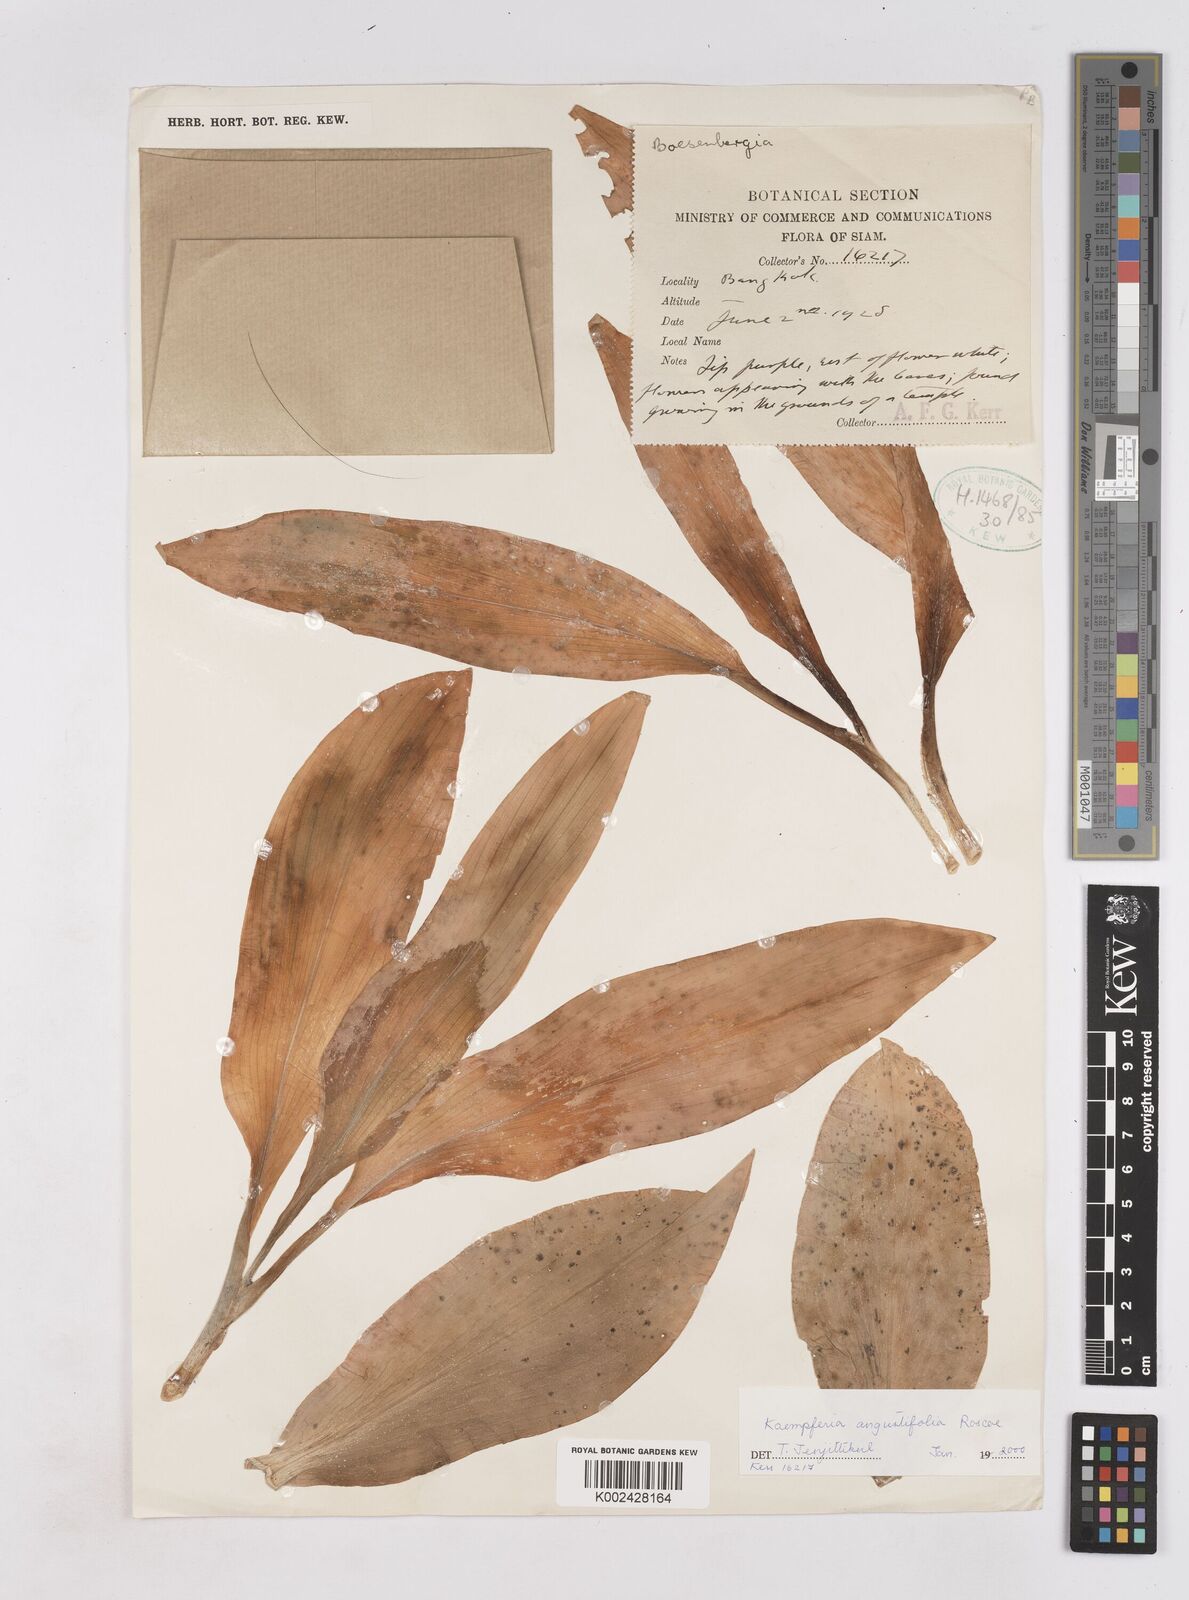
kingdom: Plantae
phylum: Tracheophyta
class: Liliopsida
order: Zingiberales
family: Zingiberaceae
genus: Kaempferia
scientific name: Kaempferia angustifolia
